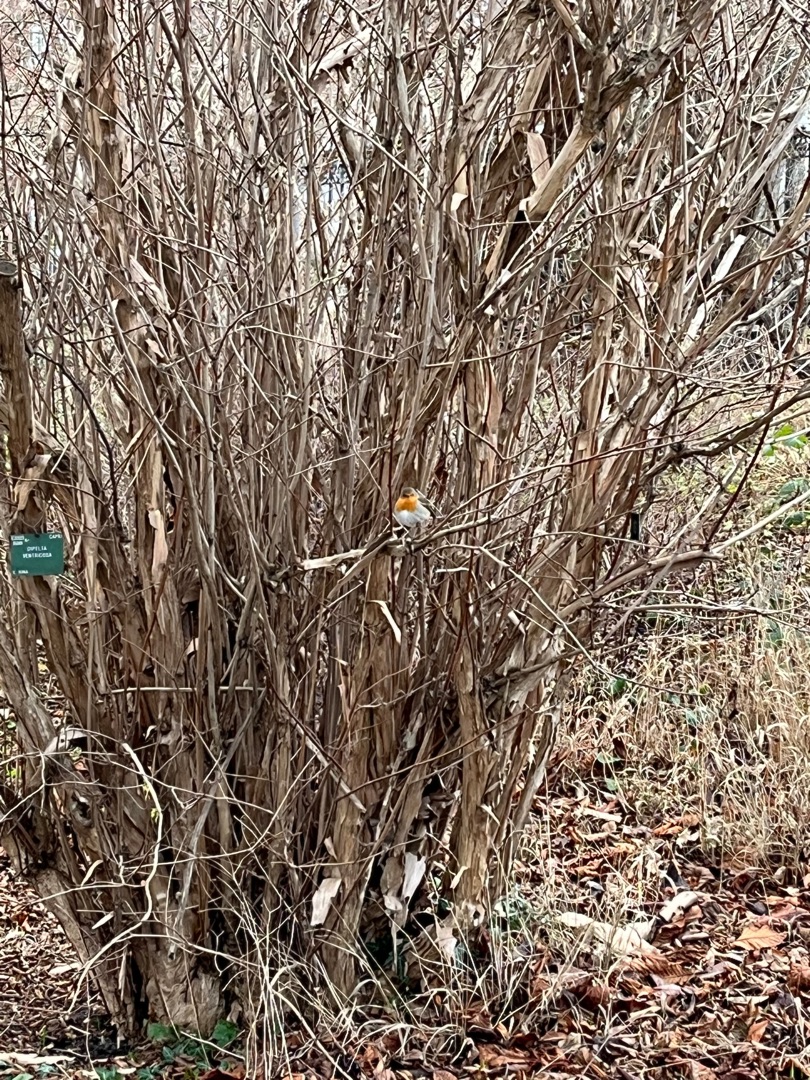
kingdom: Animalia
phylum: Chordata
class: Aves
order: Passeriformes
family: Muscicapidae
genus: Erithacus
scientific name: Erithacus rubecula
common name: Rødhals/rødkælk
